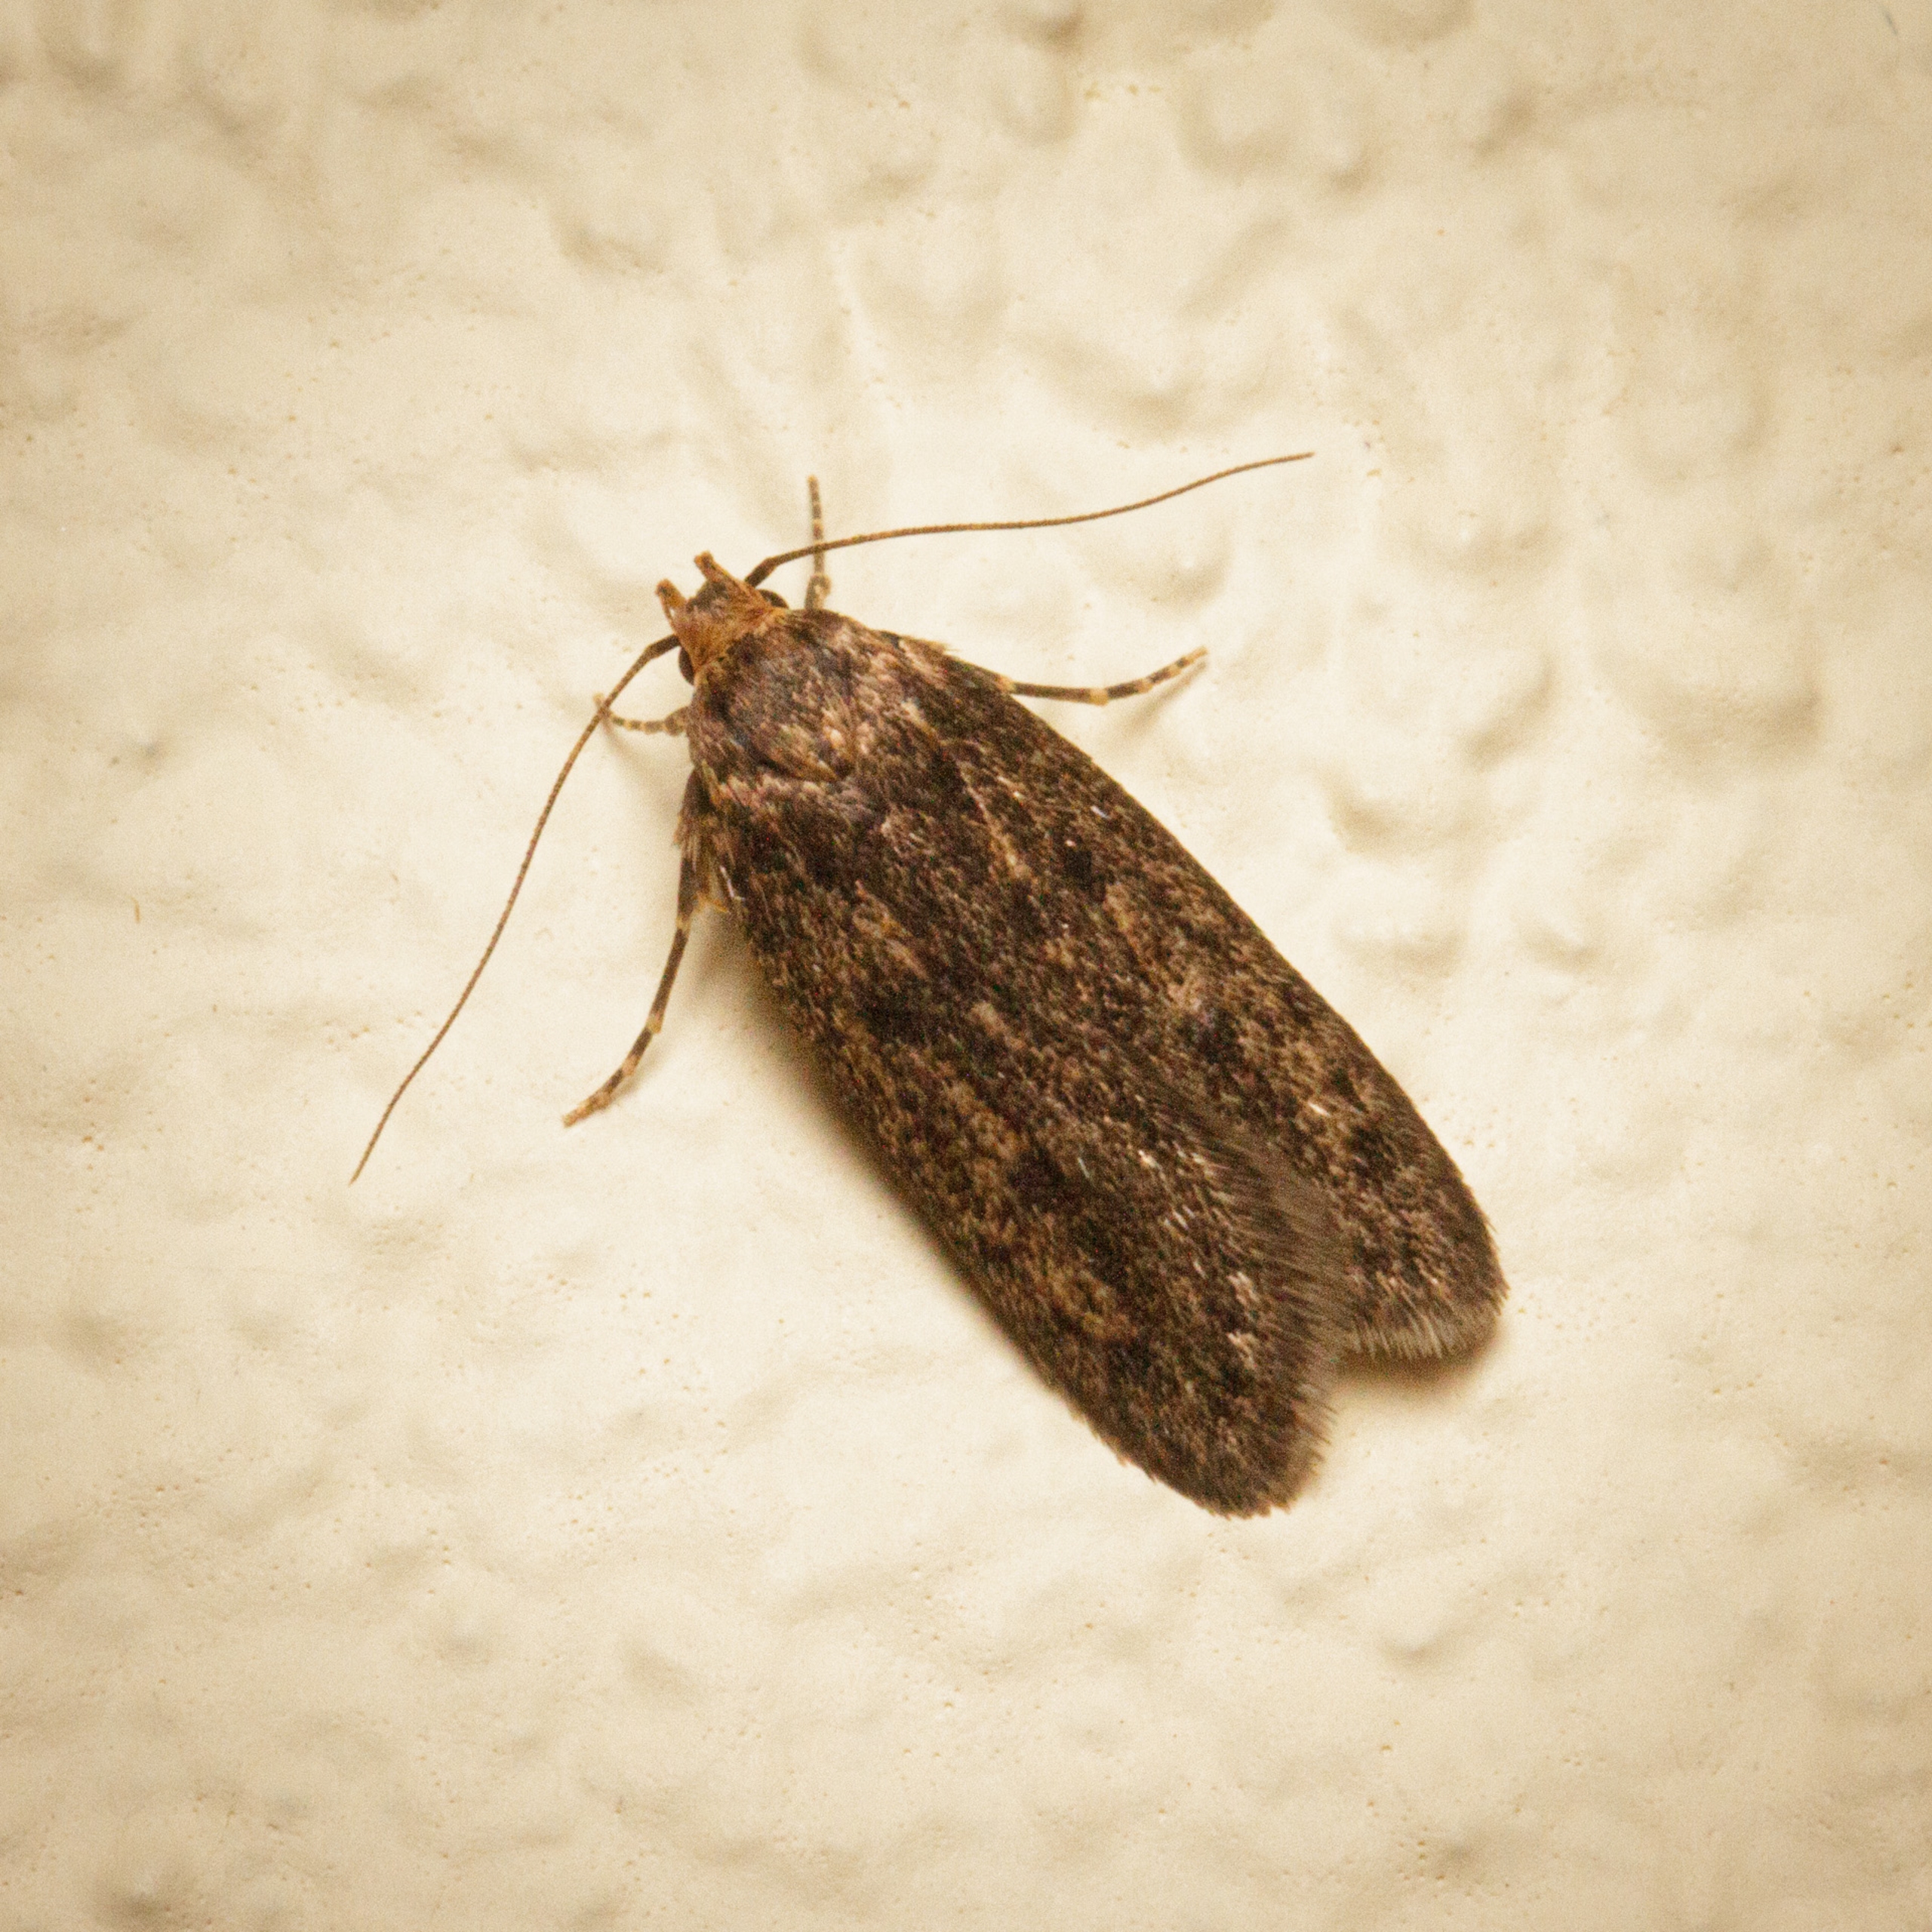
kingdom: Animalia
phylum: Arthropoda
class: Insecta
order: Lepidoptera
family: Oecophoridae
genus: Hofmannophila
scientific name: Hofmannophila pseudospretella
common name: Frømøl
